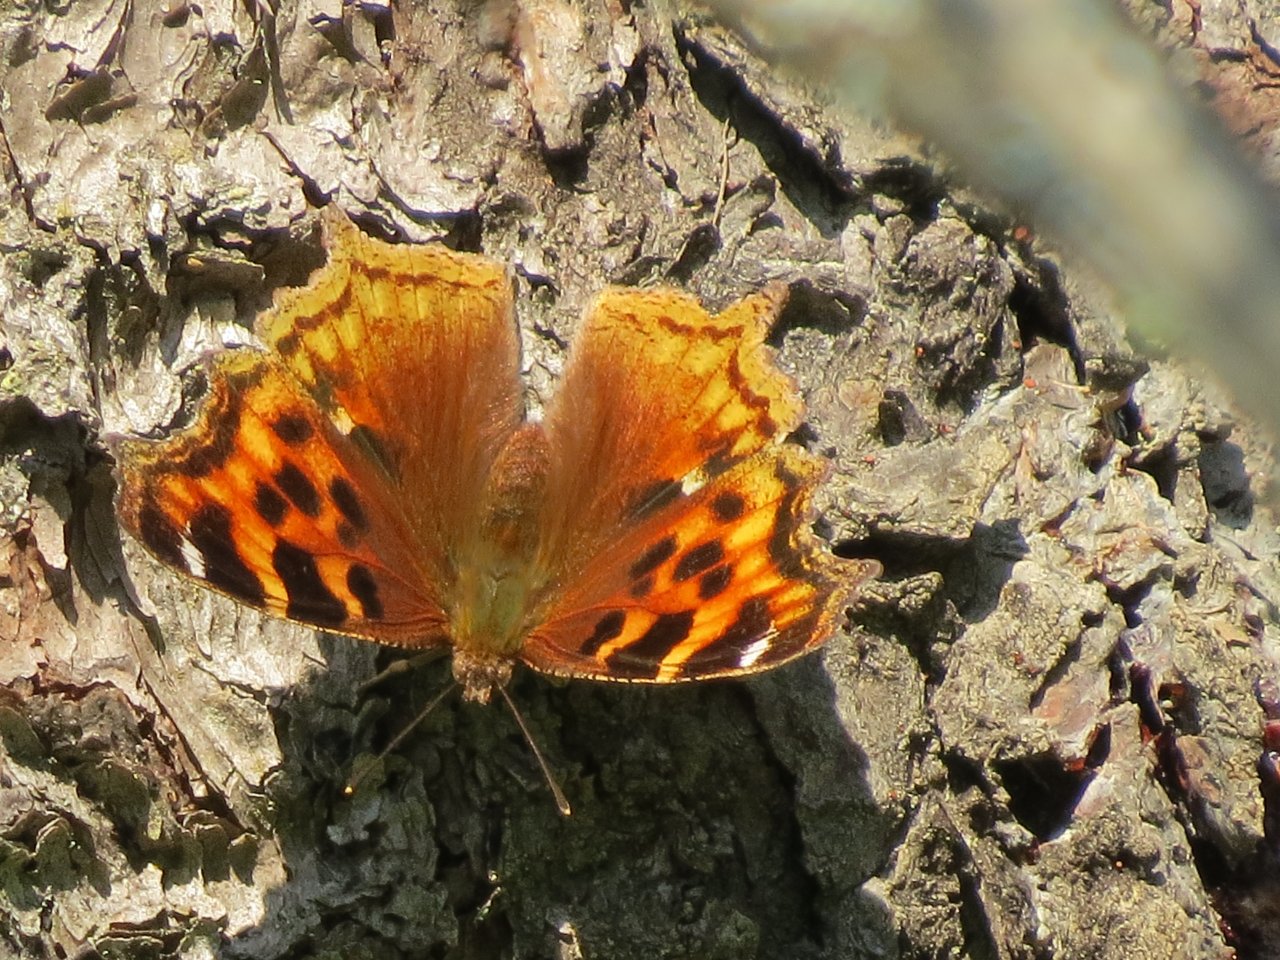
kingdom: Animalia
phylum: Arthropoda
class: Insecta
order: Lepidoptera
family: Nymphalidae
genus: Polygonia
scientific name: Polygonia vaualbum
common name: Compton Tortoiseshell
